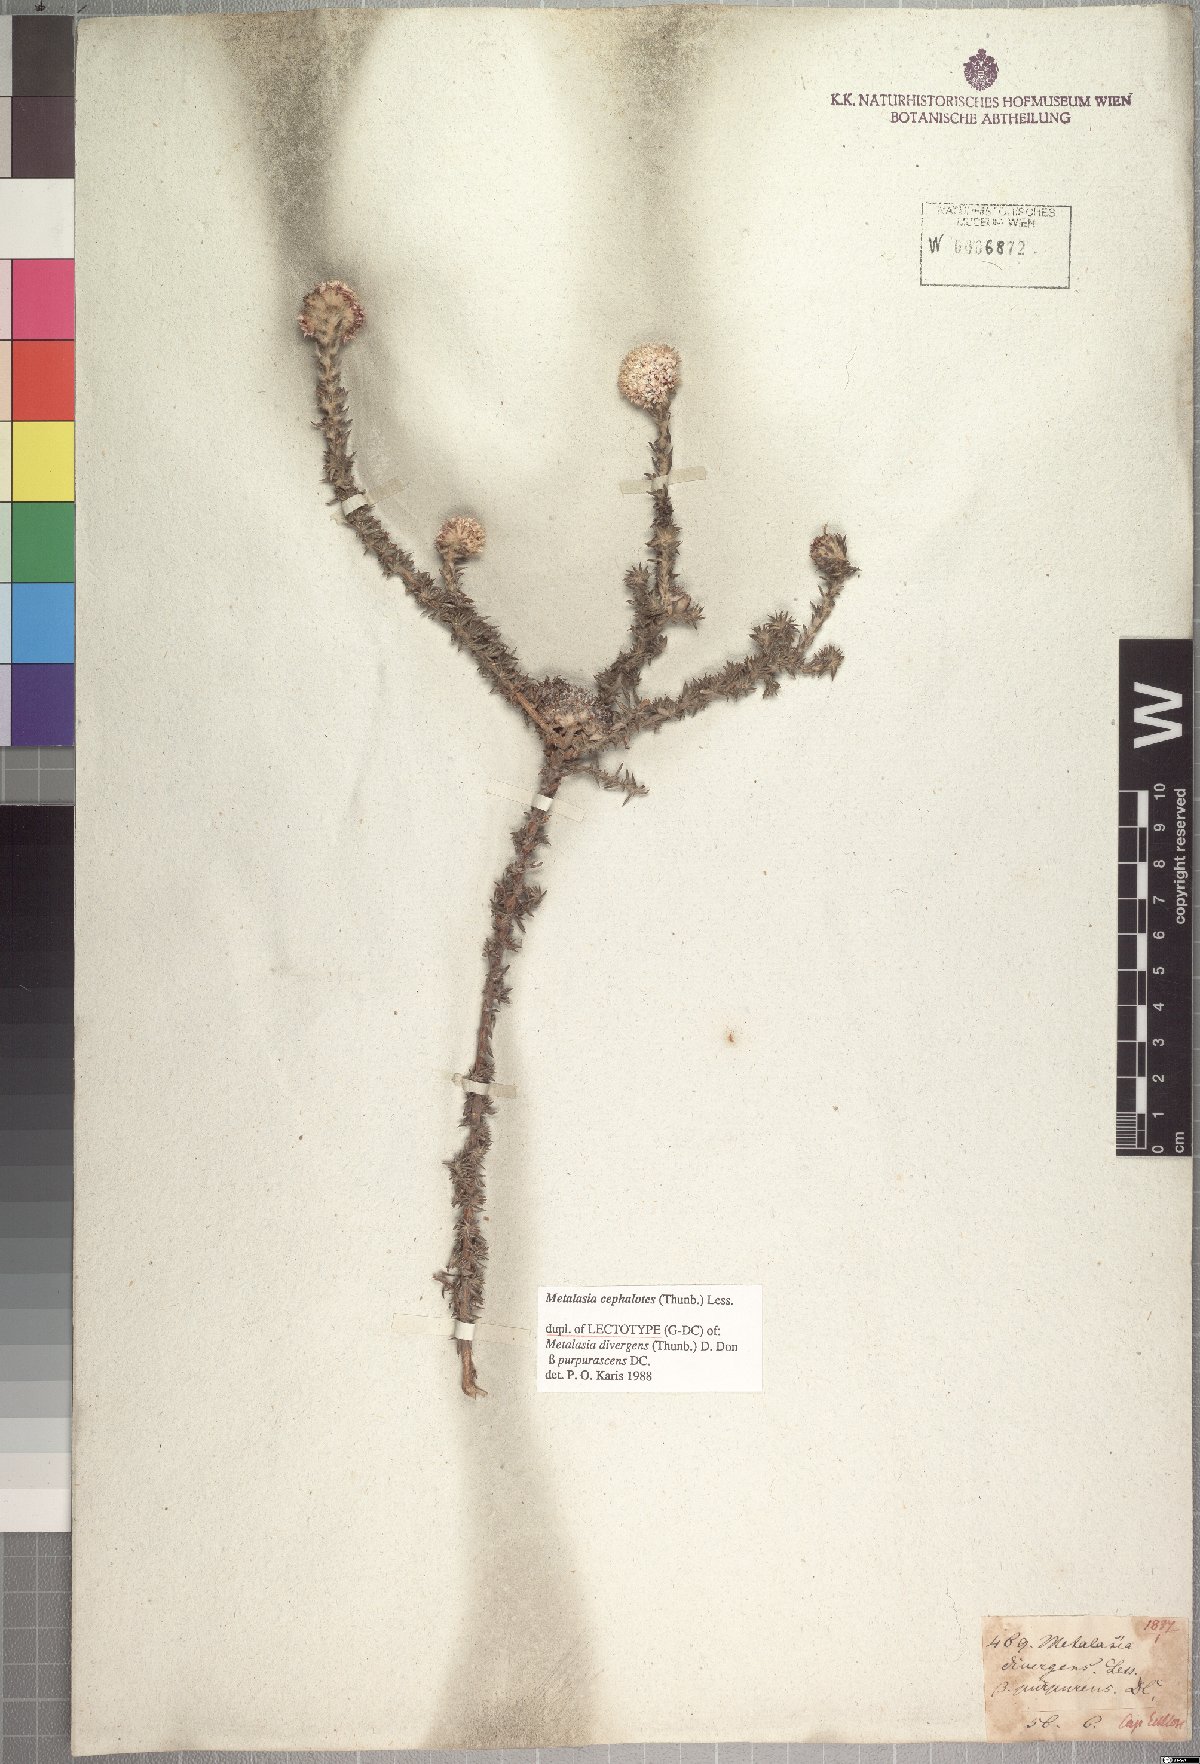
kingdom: Plantae
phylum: Tracheophyta
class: Magnoliopsida
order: Asterales
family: Asteraceae
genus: Metalasia
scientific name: Metalasia cephalotes
